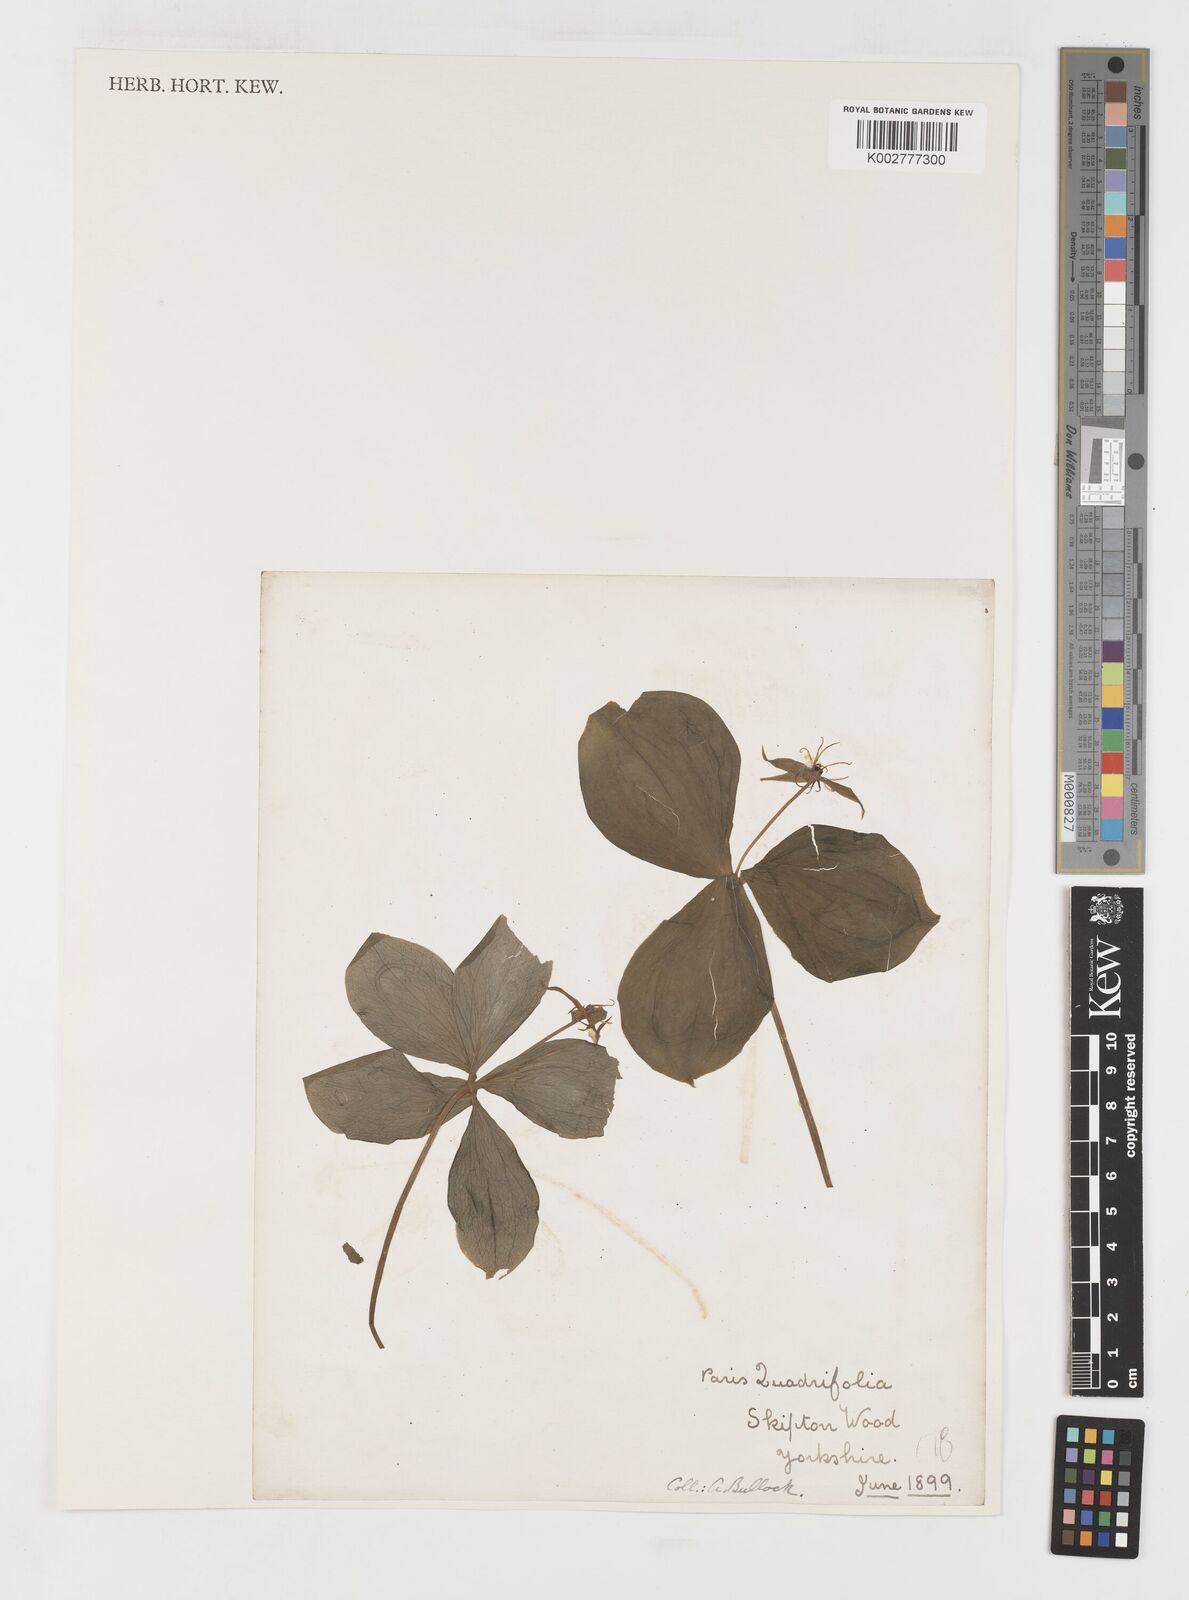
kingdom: Plantae
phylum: Tracheophyta
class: Liliopsida
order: Liliales
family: Melanthiaceae
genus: Paris
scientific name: Paris quadrifolia
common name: Herb-paris
